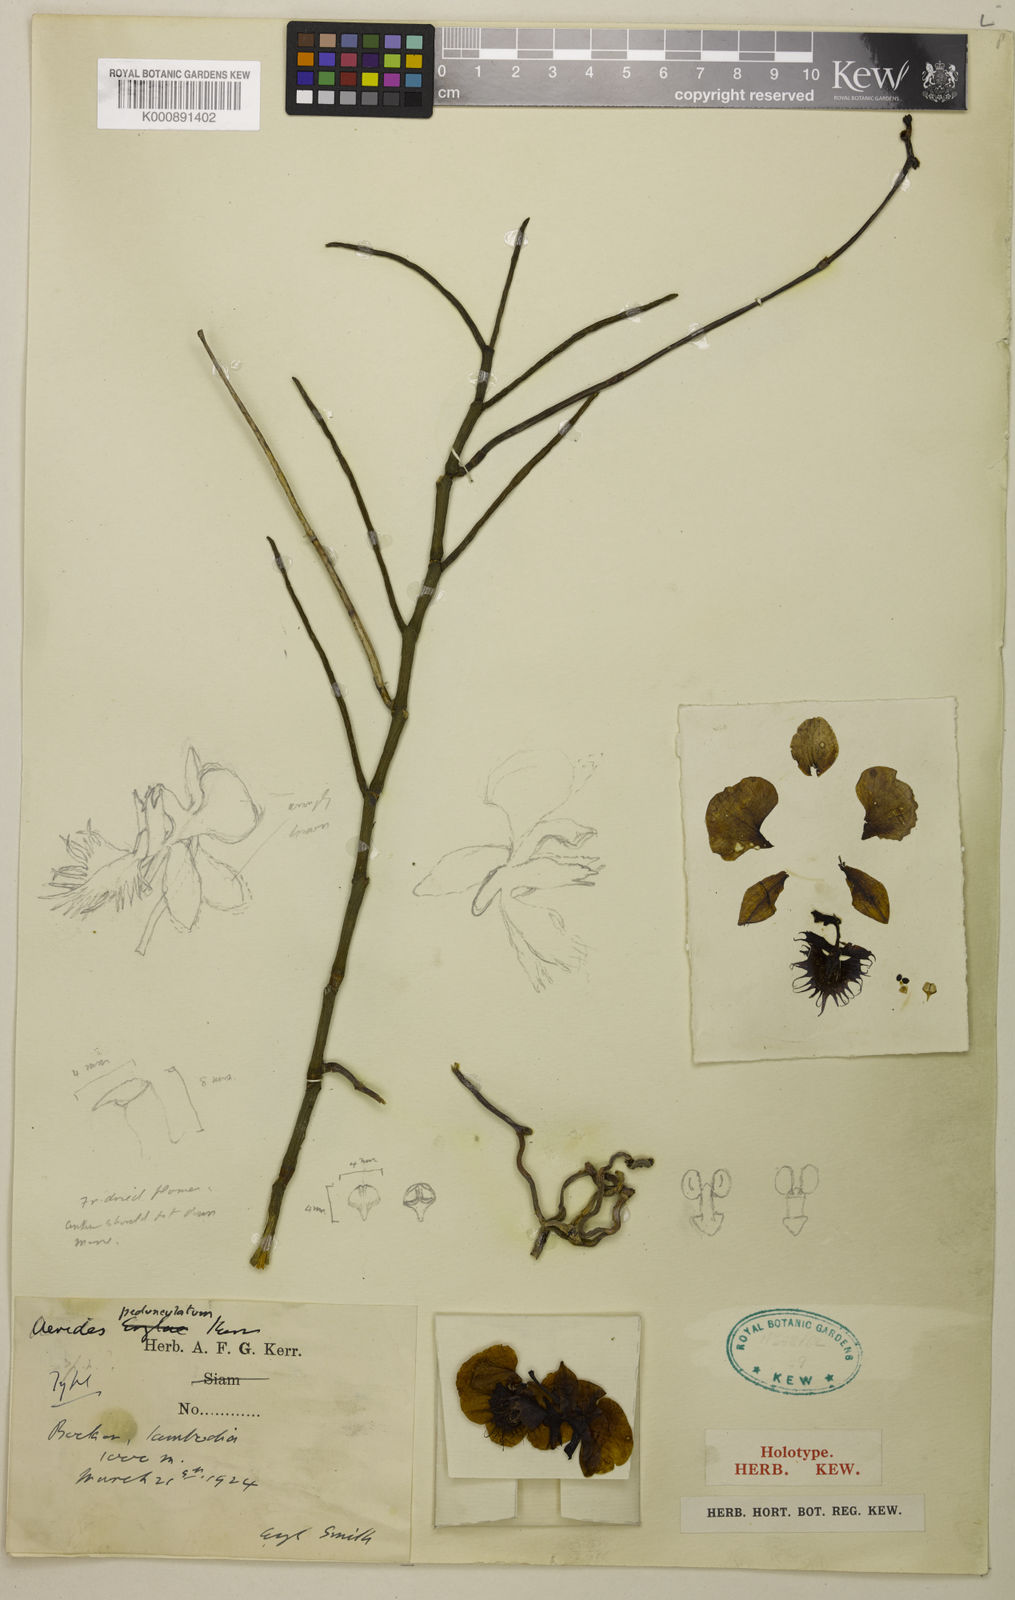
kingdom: Plantae
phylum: Tracheophyta
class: Liliopsida
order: Asparagales
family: Orchidaceae
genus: Papilionanthe
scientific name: Papilionanthe pedunculata
